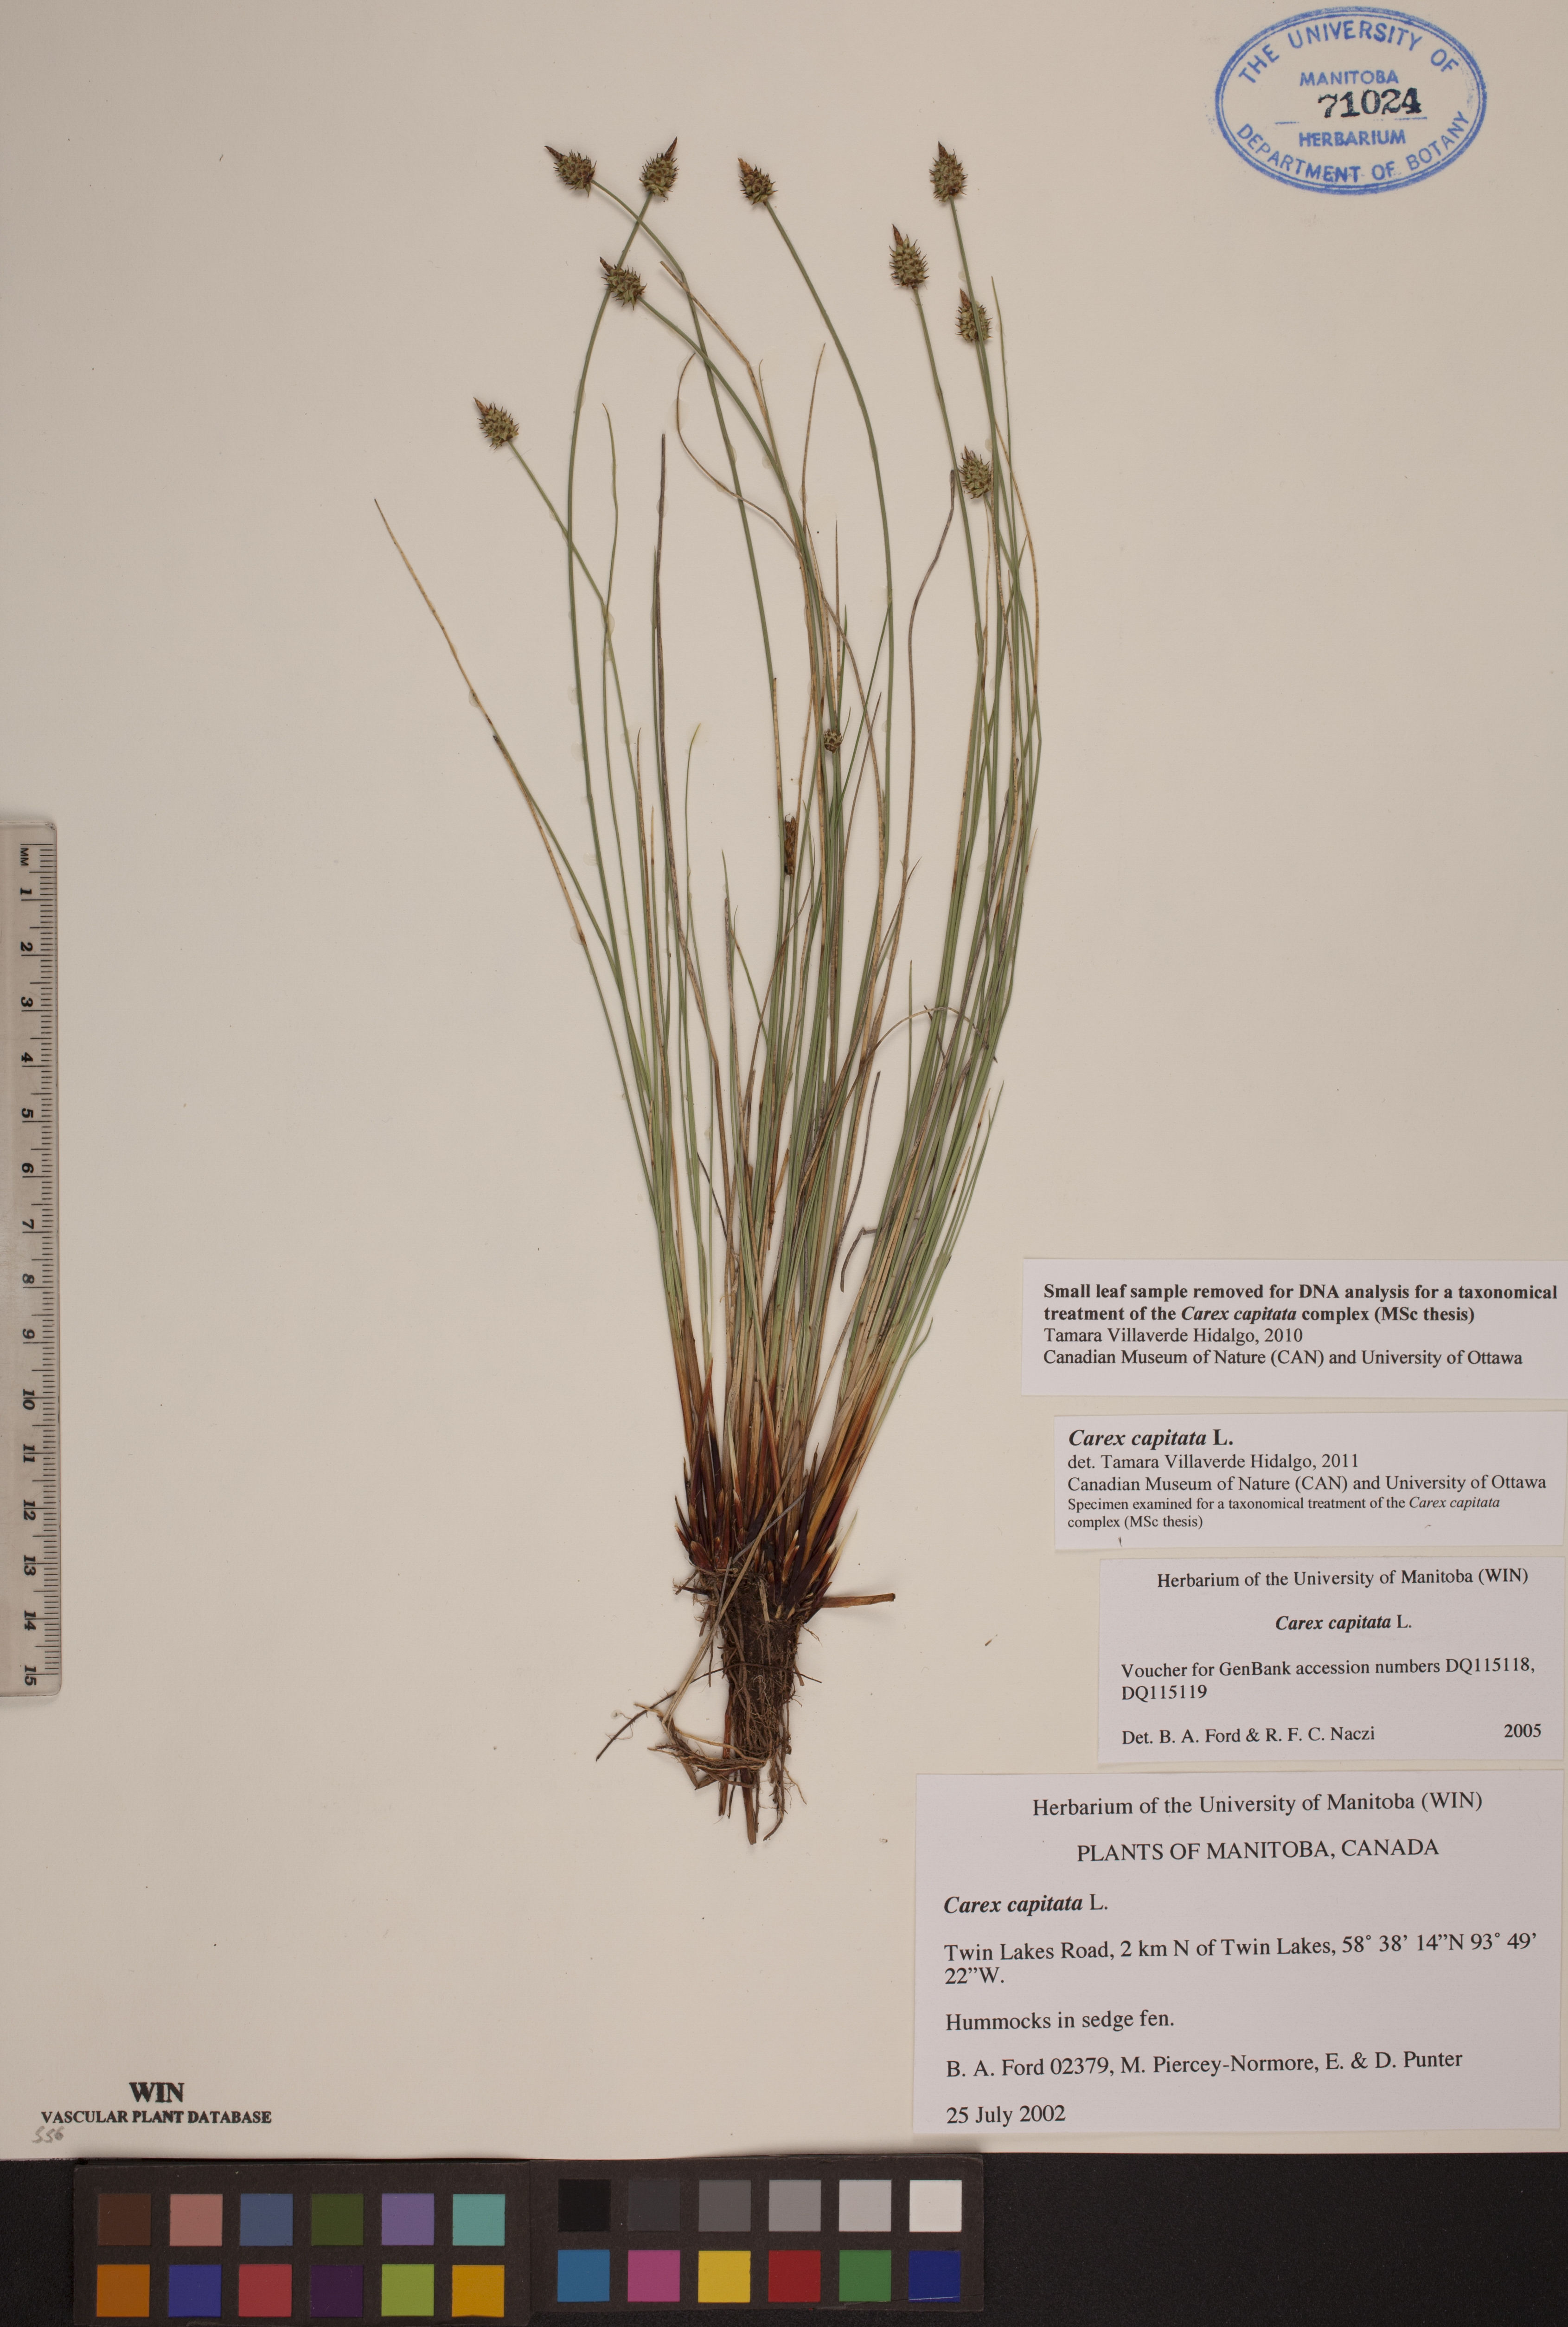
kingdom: Plantae
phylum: Tracheophyta
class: Liliopsida
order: Poales
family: Cyperaceae
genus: Carex
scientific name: Carex capitata
